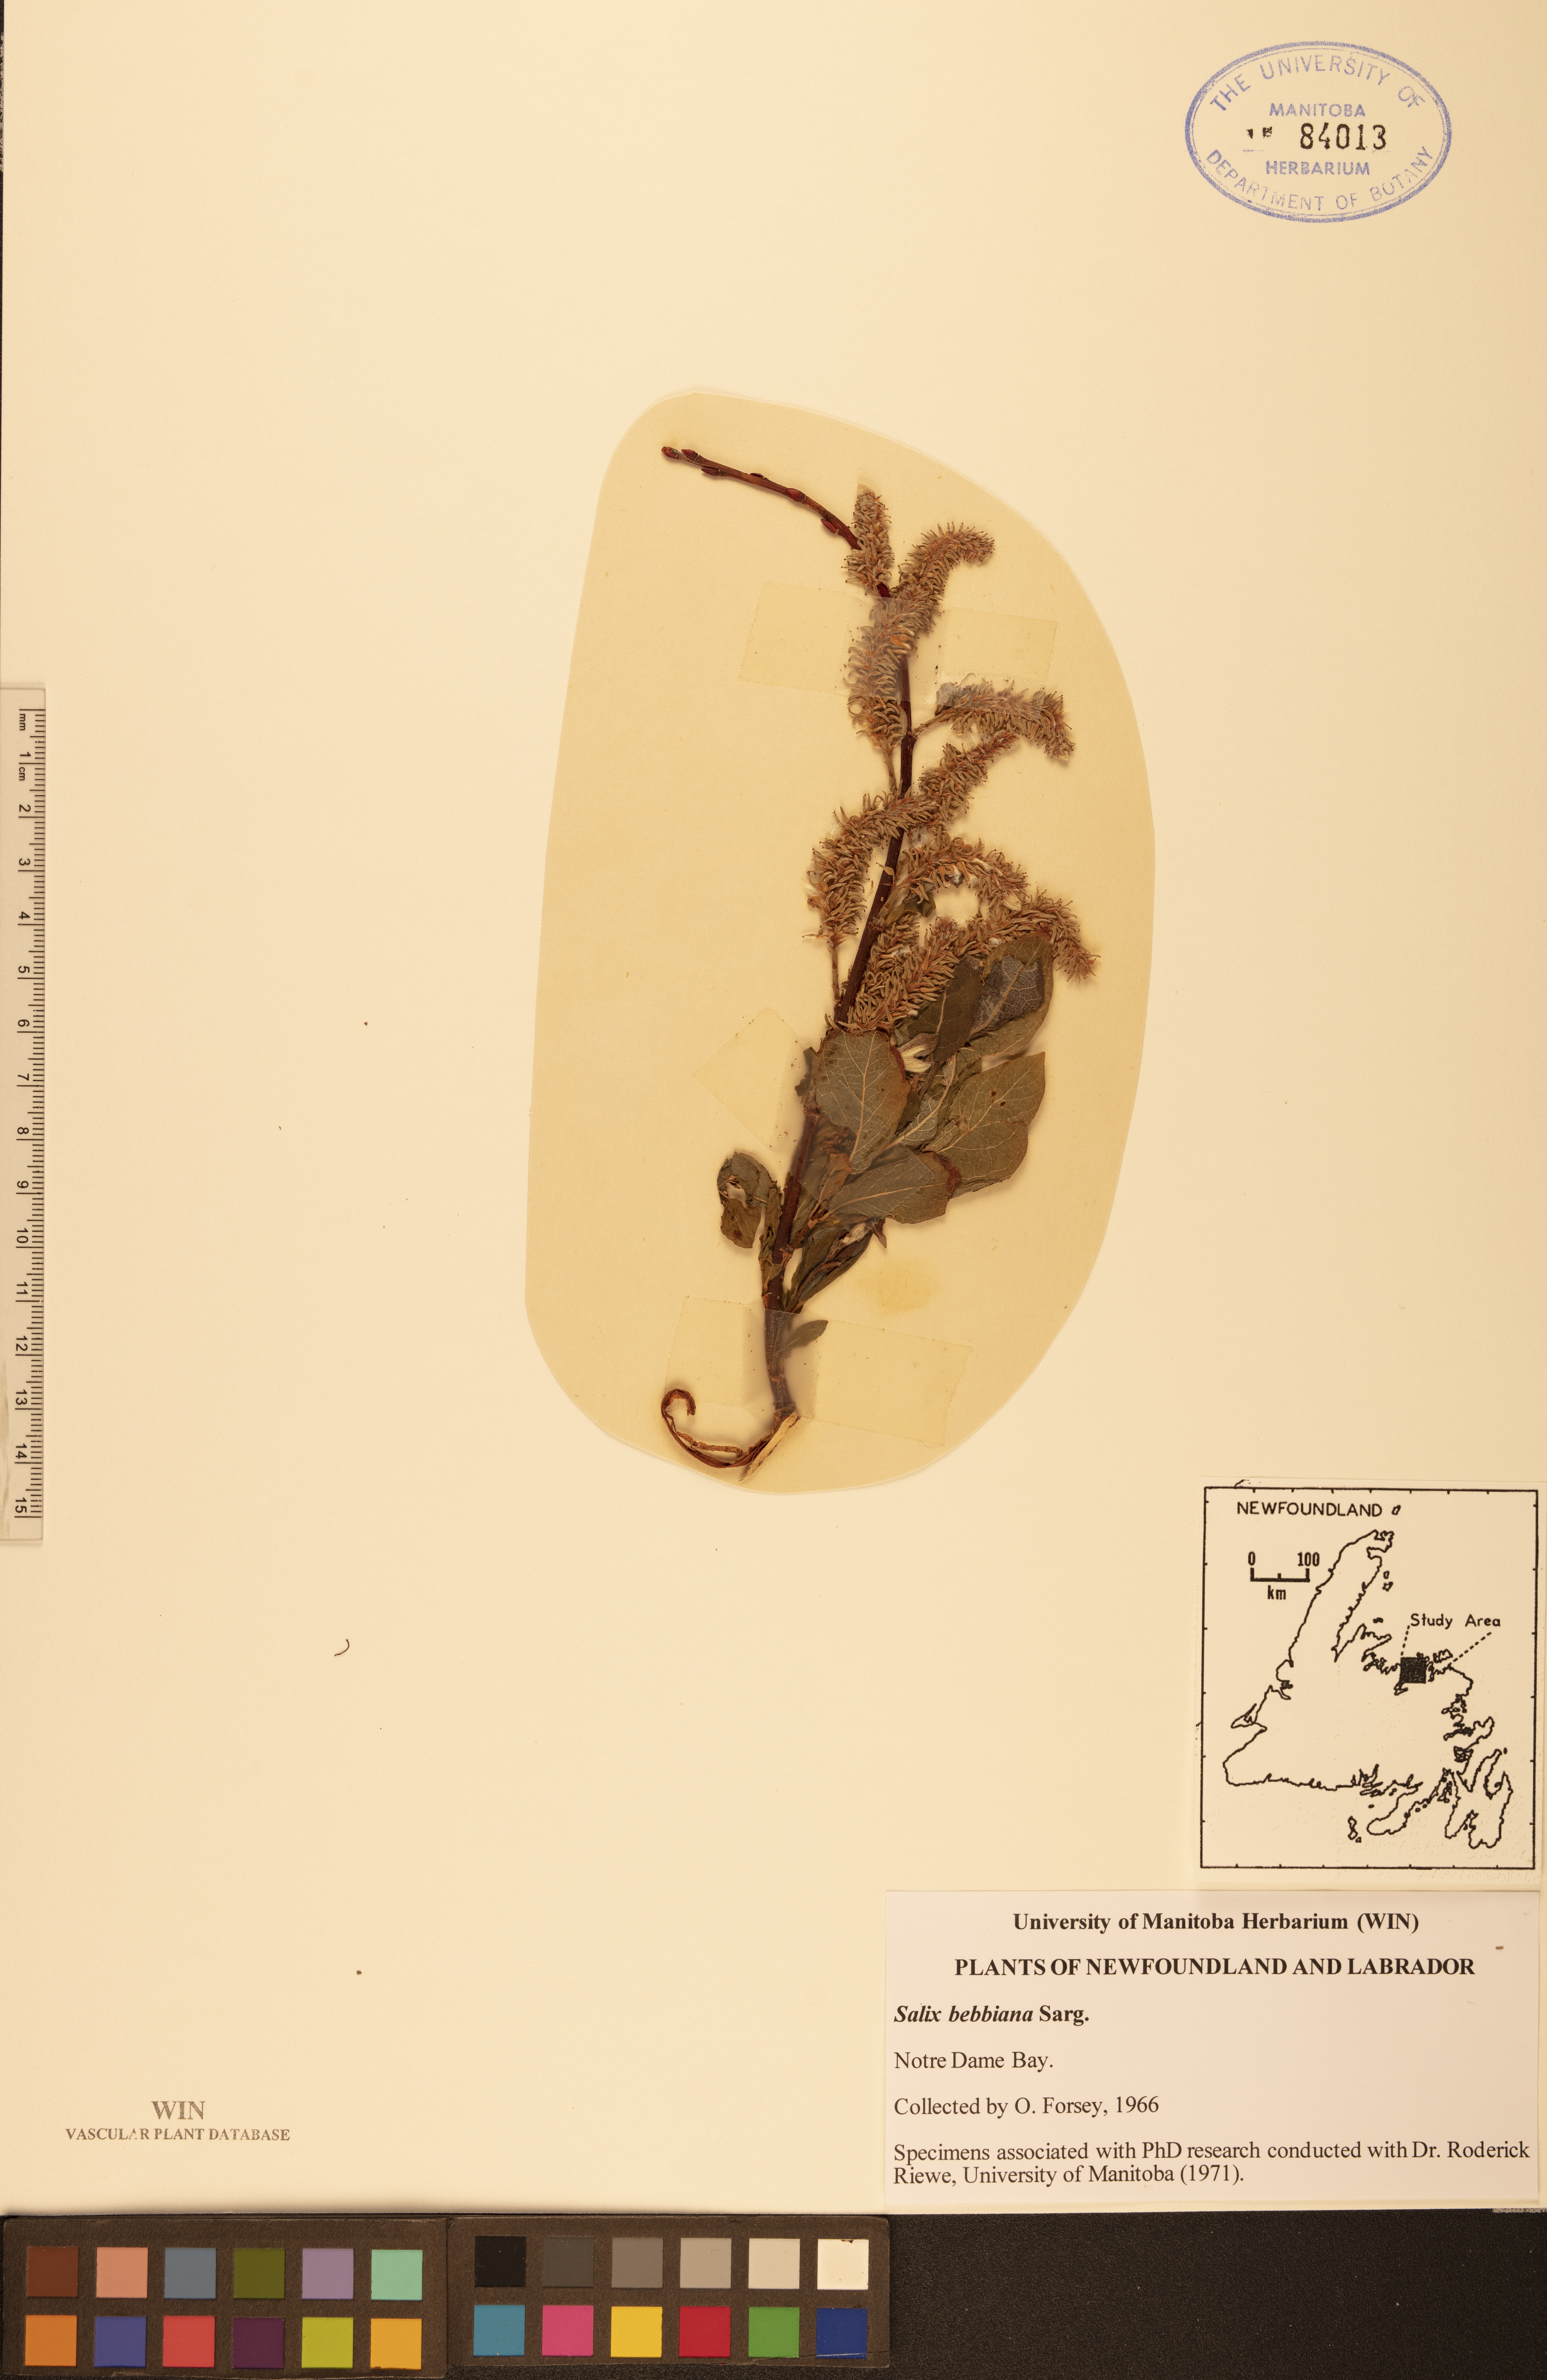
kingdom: Plantae
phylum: Tracheophyta
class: Magnoliopsida
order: Malpighiales
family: Salicaceae
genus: Salix
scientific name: Salix bebbiana
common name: Bebb's willow
